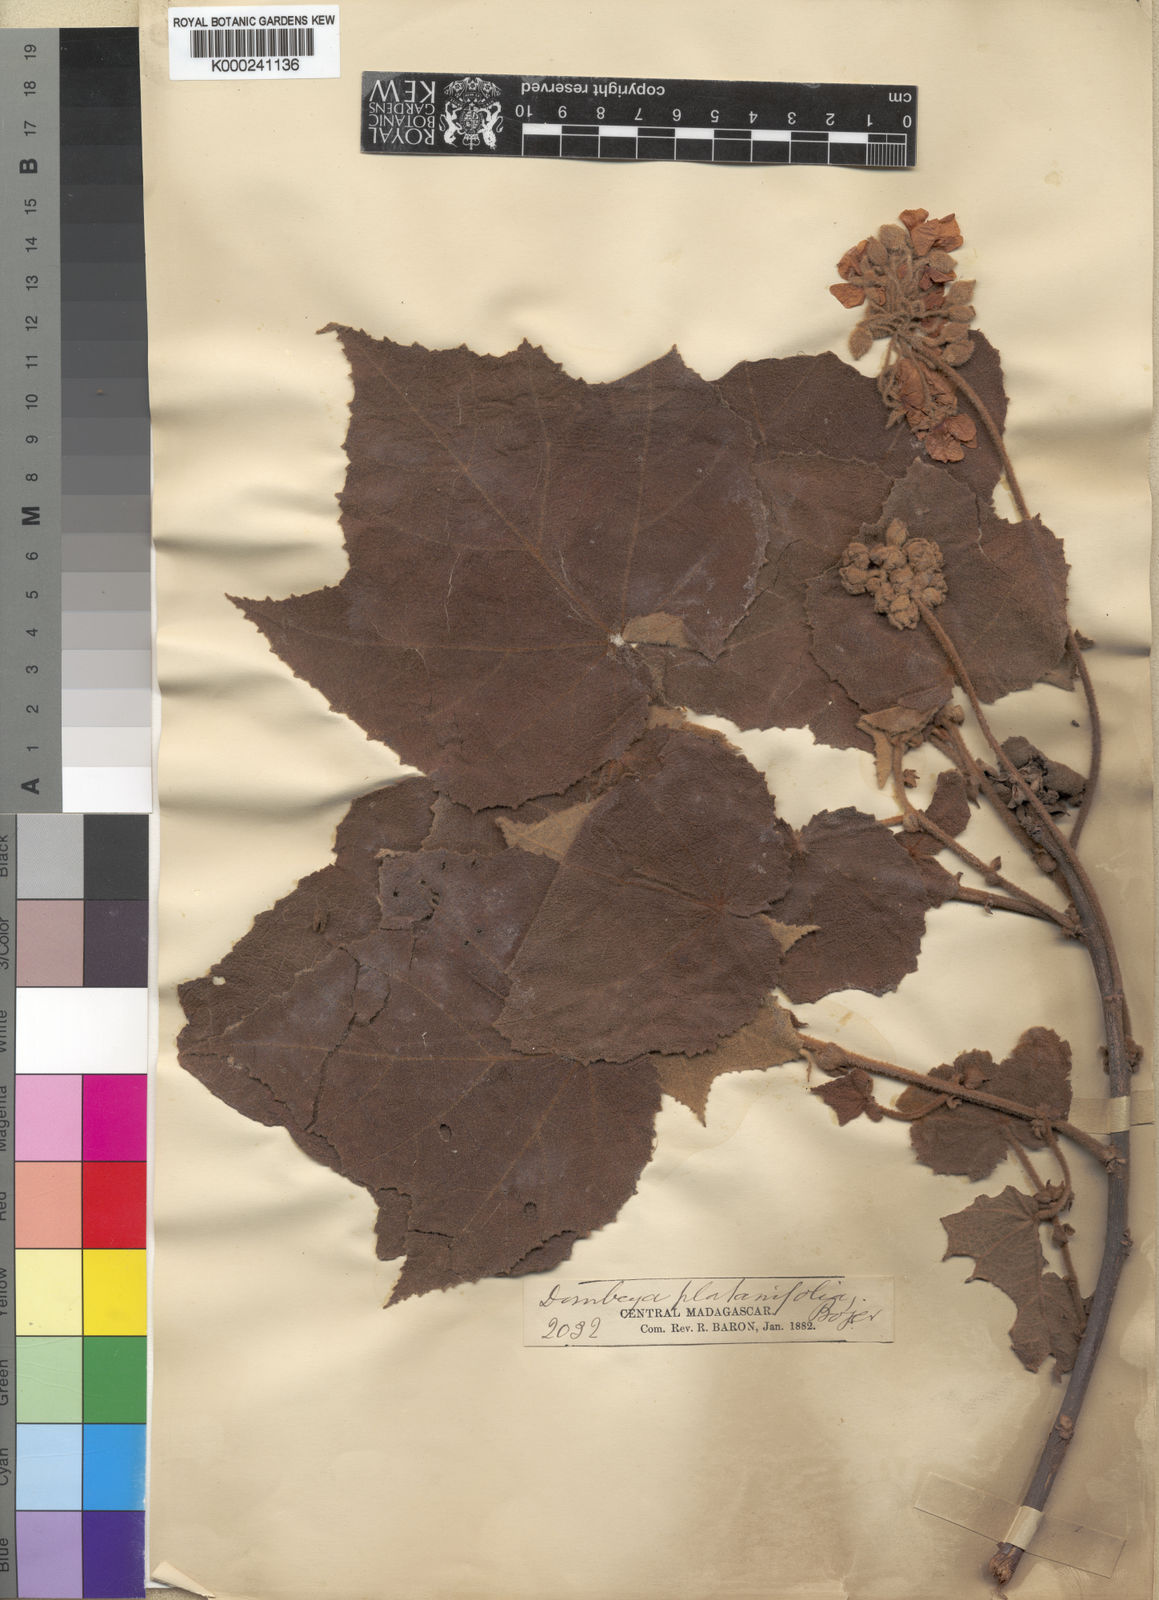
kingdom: Plantae
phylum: Tracheophyta
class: Magnoliopsida
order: Malvales
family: Malvaceae
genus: Dombeya
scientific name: Dombeya platanifolia
